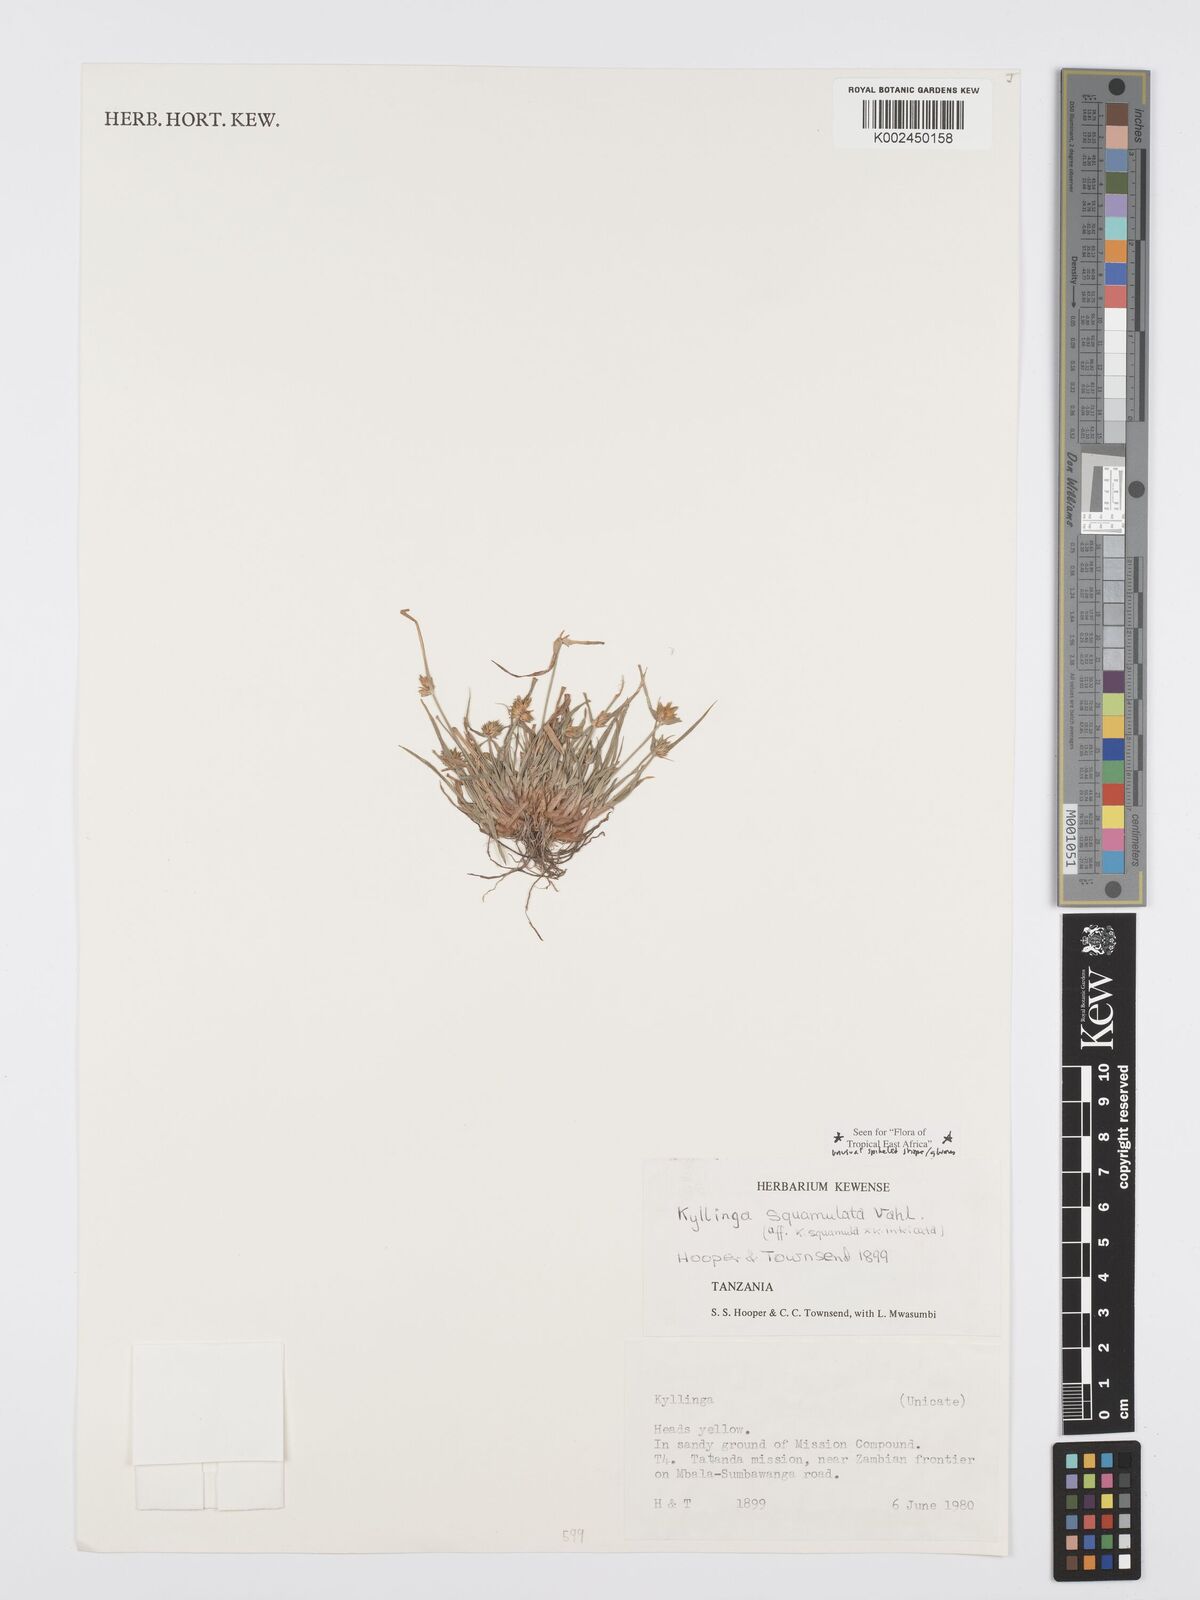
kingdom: Plantae
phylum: Tracheophyta
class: Liliopsida
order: Poales
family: Cyperaceae
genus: Cyperus
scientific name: Cyperus distans
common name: Slender cyperus
